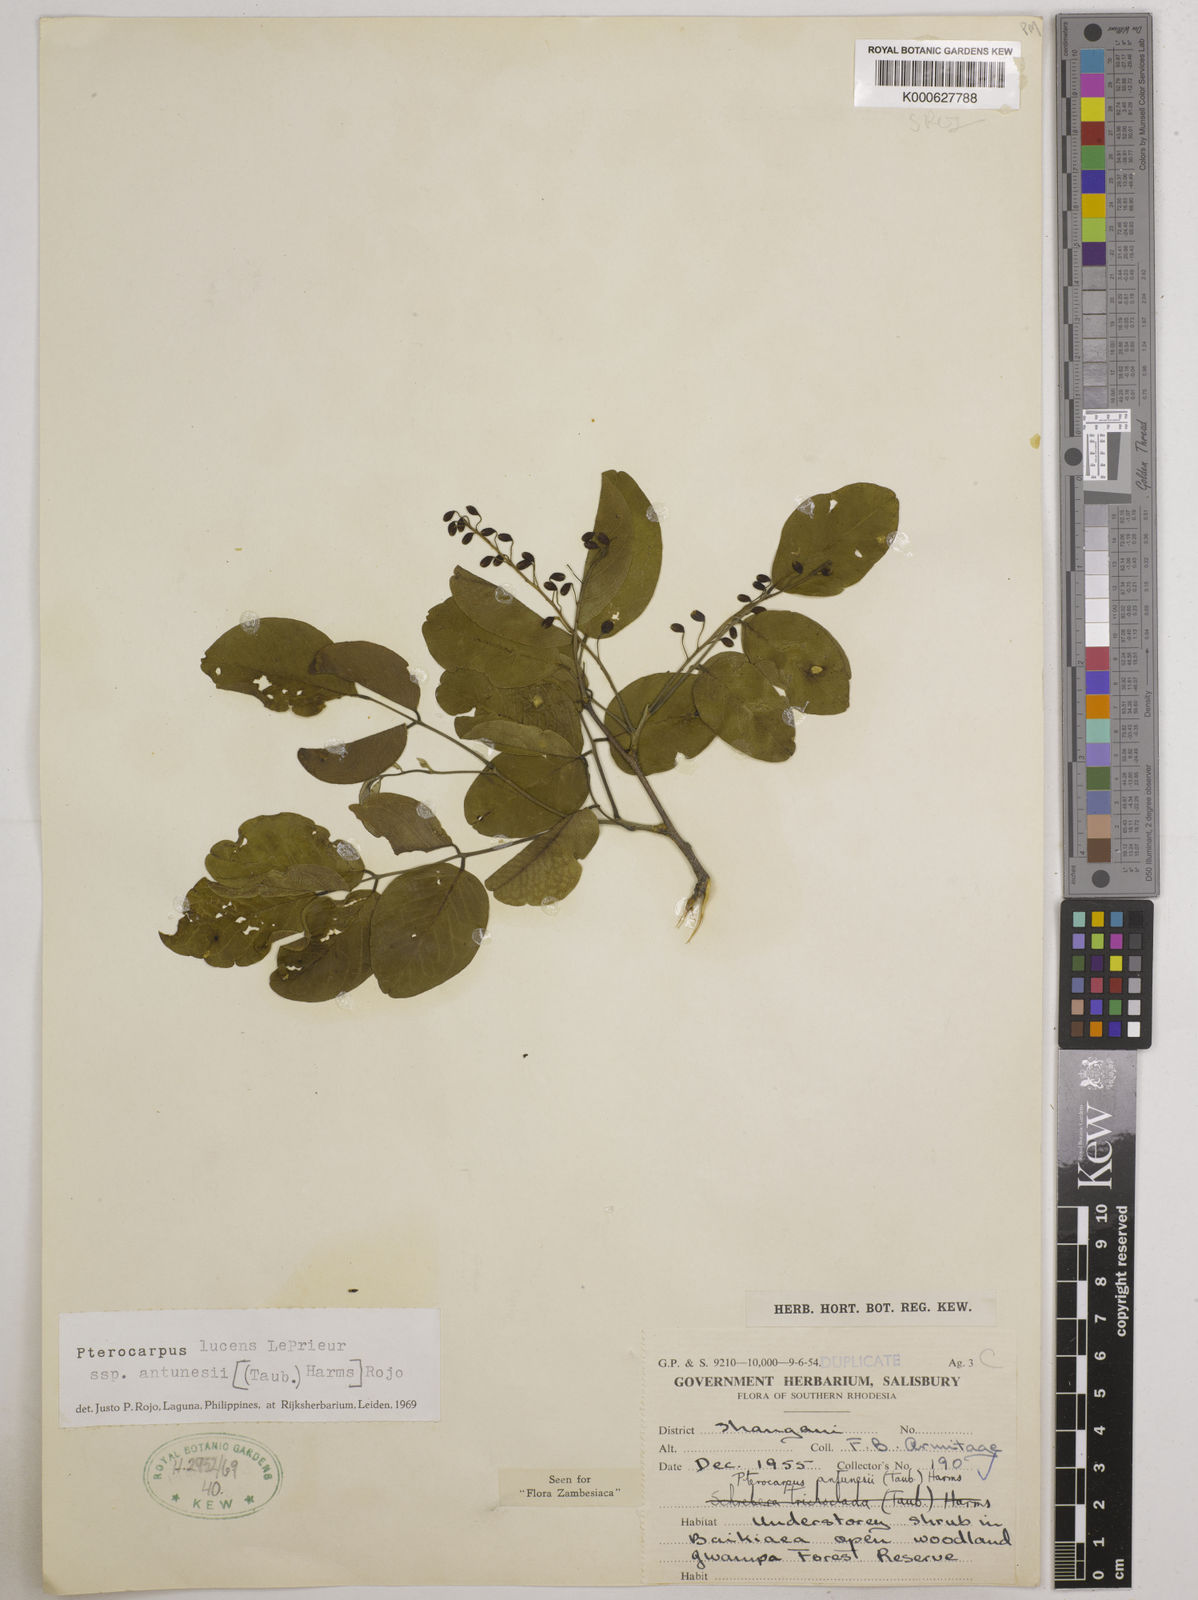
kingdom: Plantae
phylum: Tracheophyta
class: Magnoliopsida
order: Fabales
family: Fabaceae
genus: Pterocarpus
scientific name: Pterocarpus lucens
